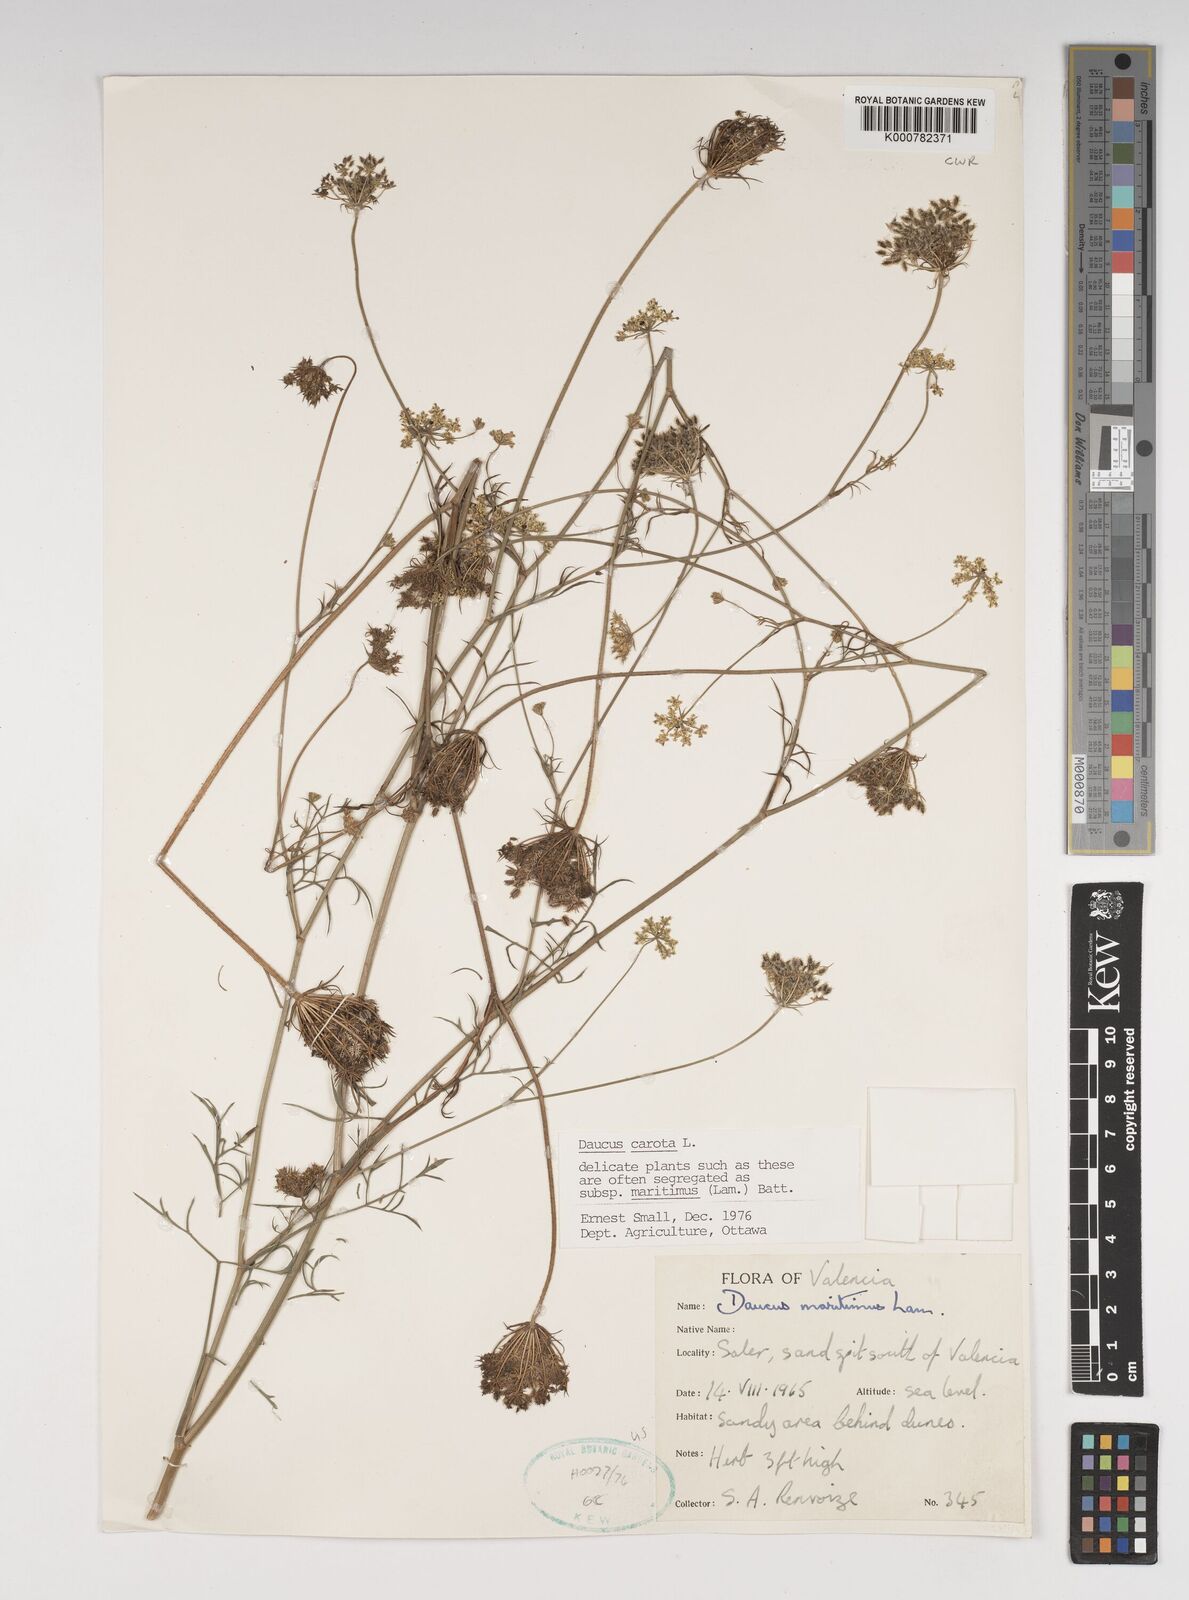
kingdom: Plantae
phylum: Tracheophyta
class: Magnoliopsida
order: Apiales
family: Apiaceae
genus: Daucus
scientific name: Daucus carota
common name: Wild carrot
